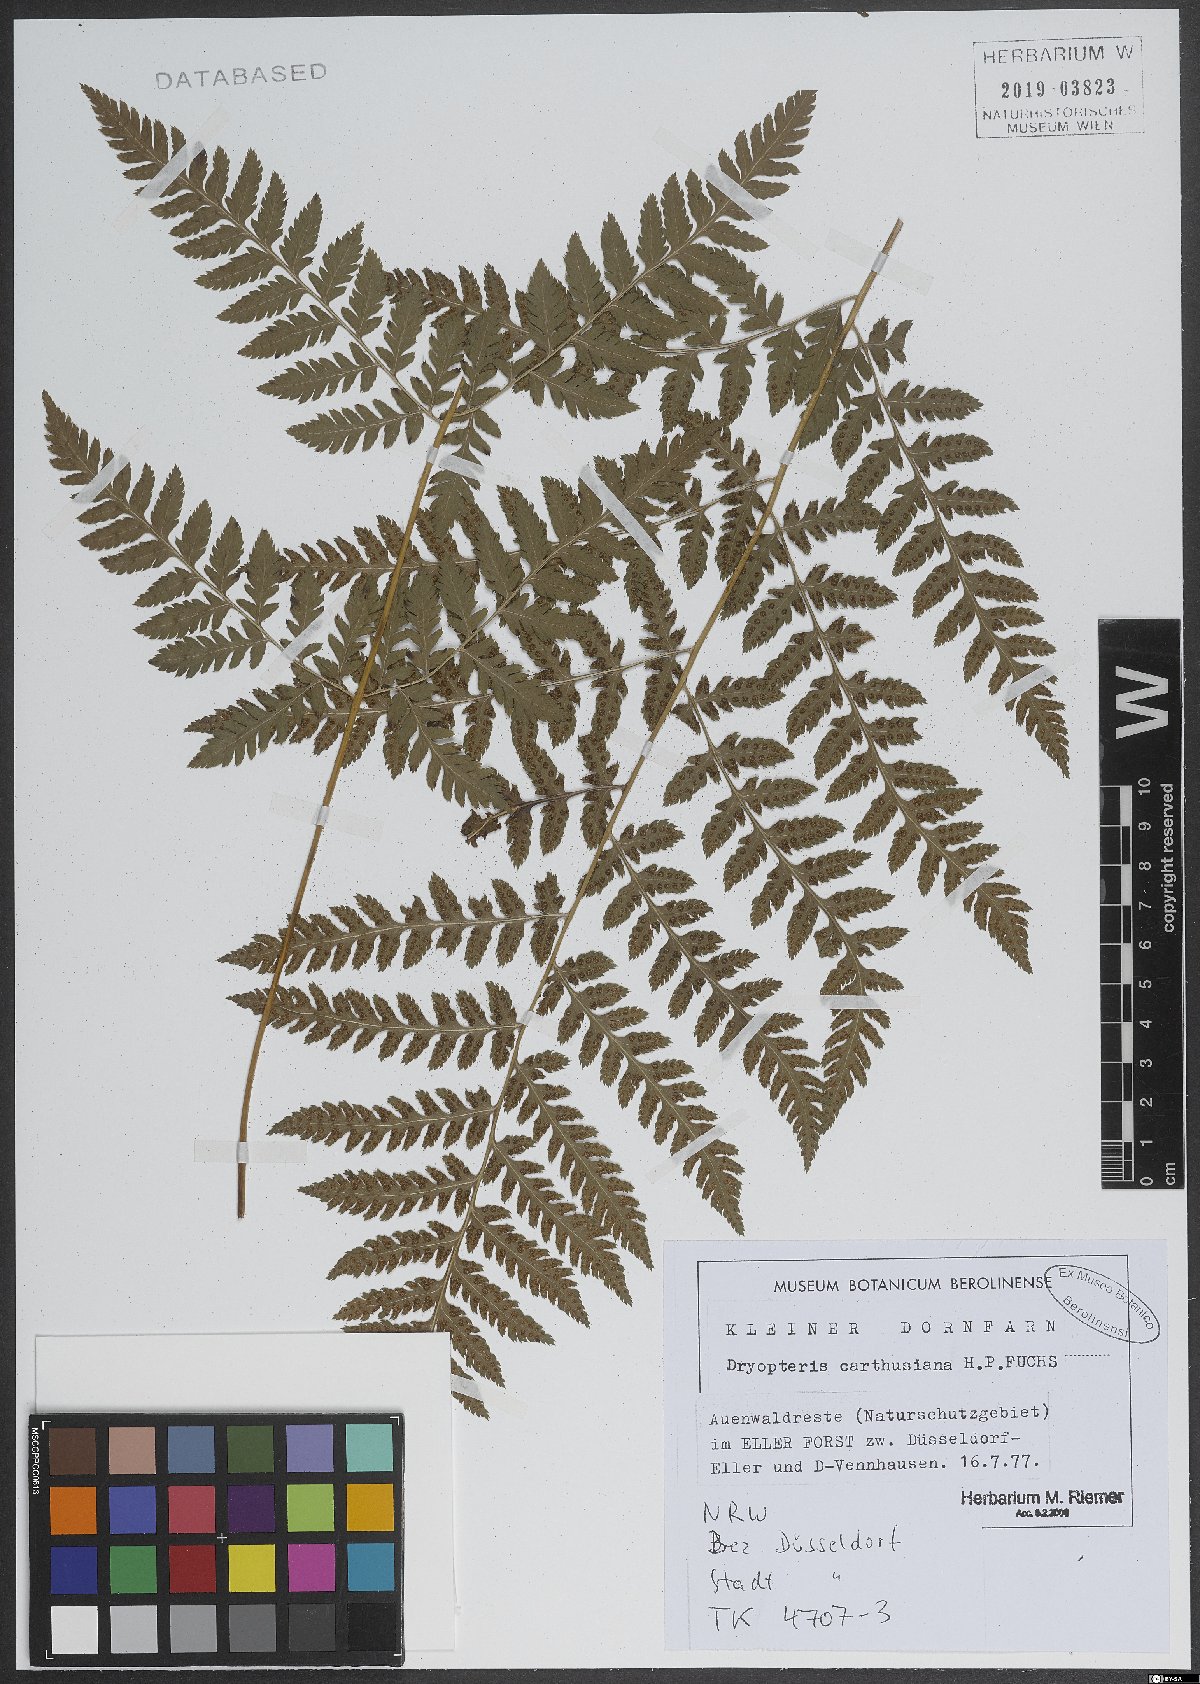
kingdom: Plantae
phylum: Tracheophyta
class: Polypodiopsida
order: Polypodiales
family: Dryopteridaceae
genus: Dryopteris
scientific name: Dryopteris carthusiana
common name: Narrow buckler-fern
